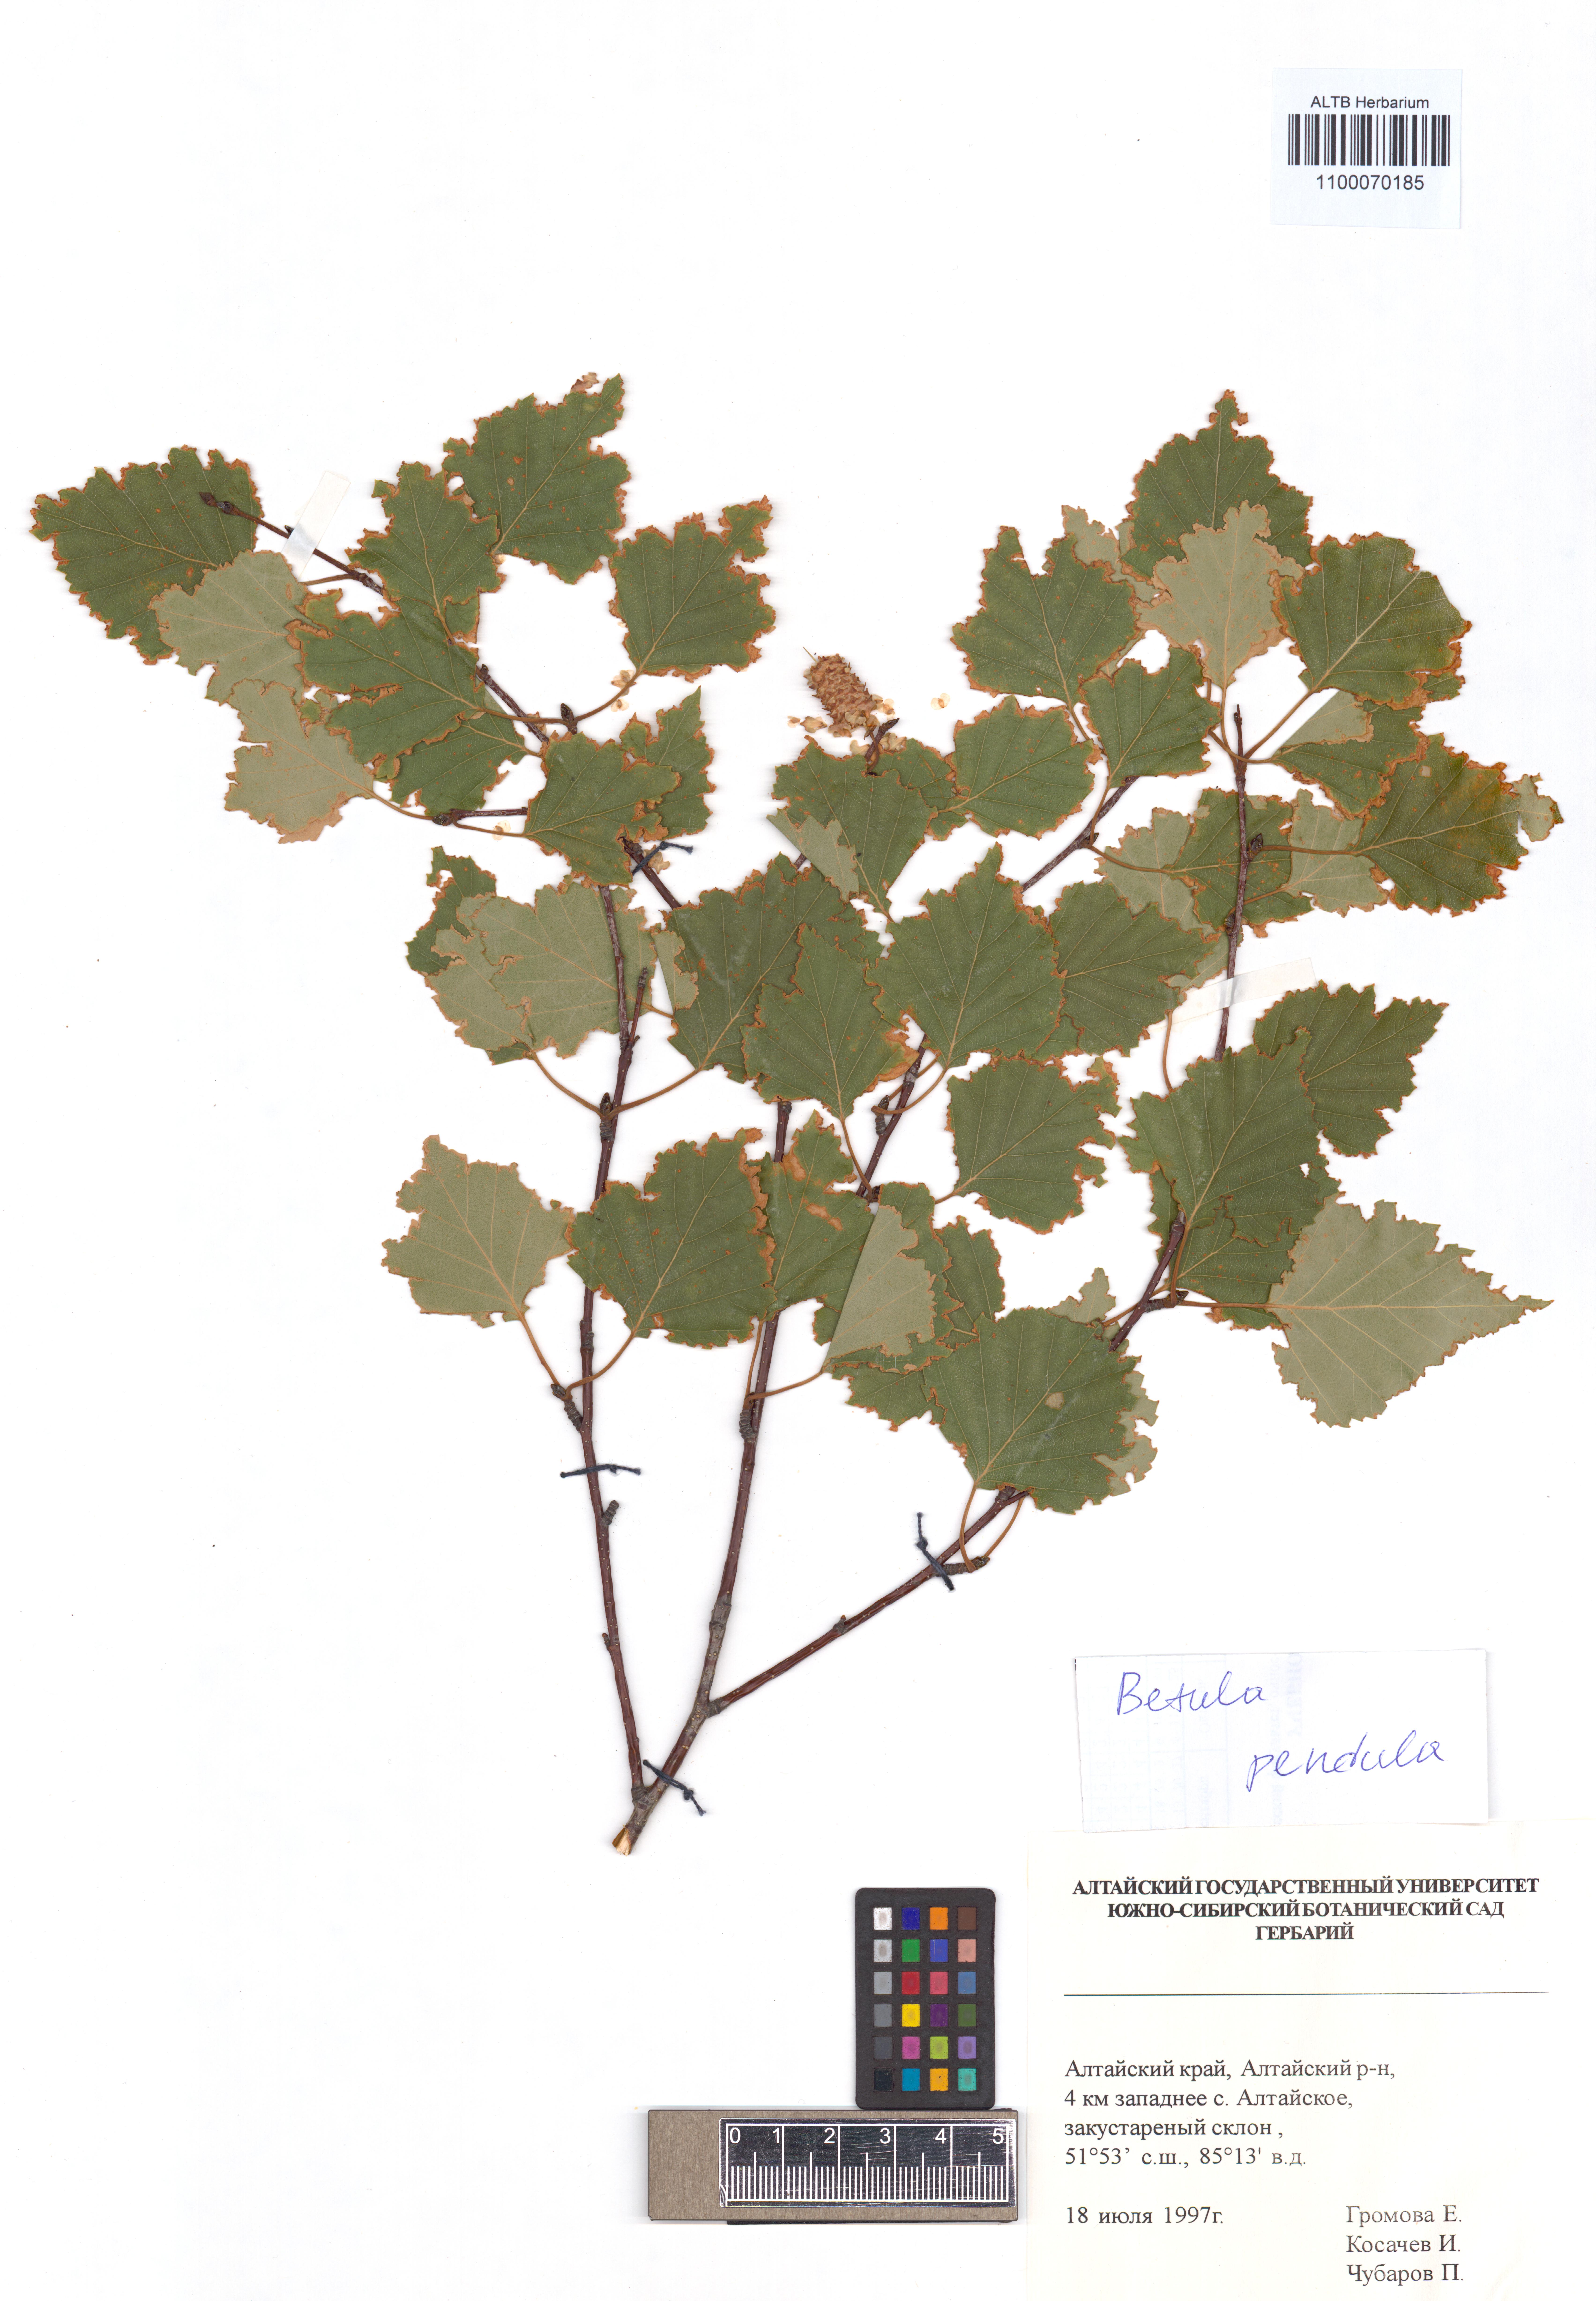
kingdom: Plantae
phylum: Tracheophyta
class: Magnoliopsida
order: Fagales
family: Betulaceae
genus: Betula
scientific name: Betula pendula
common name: Silver birch
